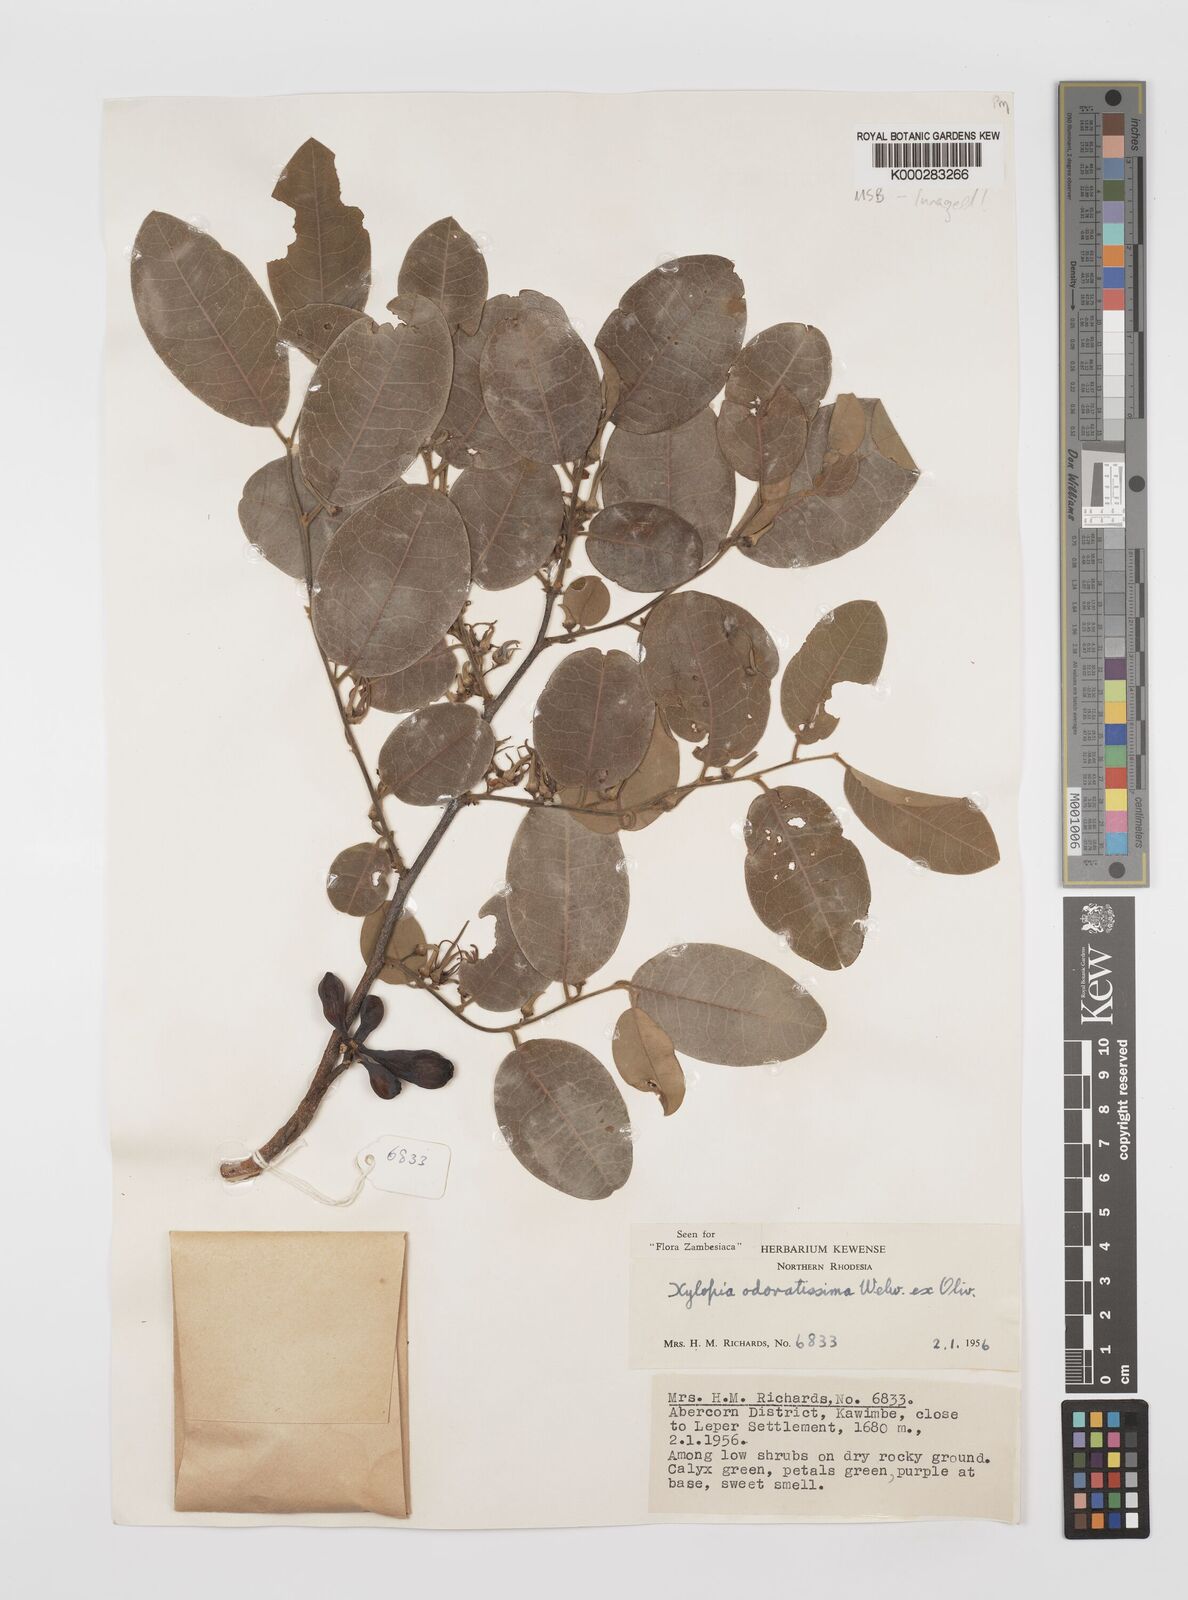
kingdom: Plantae
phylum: Tracheophyta
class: Magnoliopsida
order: Magnoliales
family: Annonaceae
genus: Xylopia
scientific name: Xylopia odoratissima
